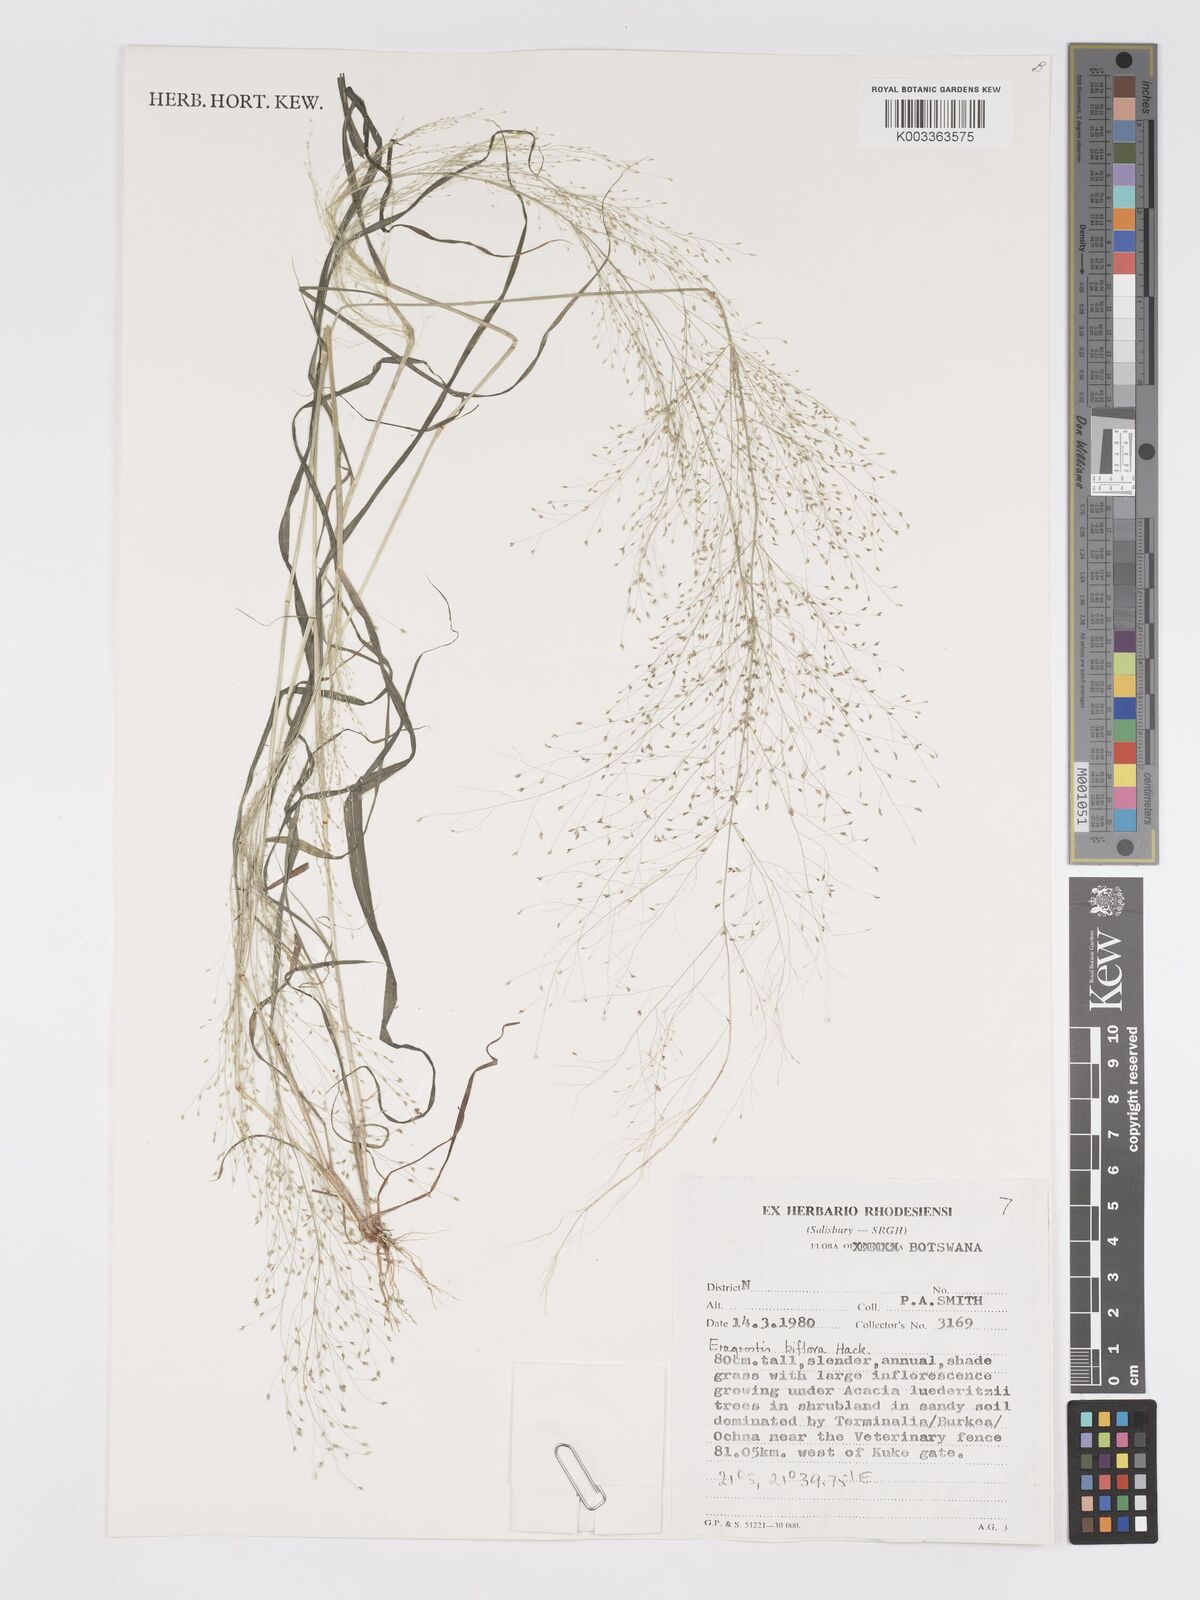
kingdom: Plantae
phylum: Tracheophyta
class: Liliopsida
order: Poales
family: Poaceae
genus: Eragrostis
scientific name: Eragrostis biflora
